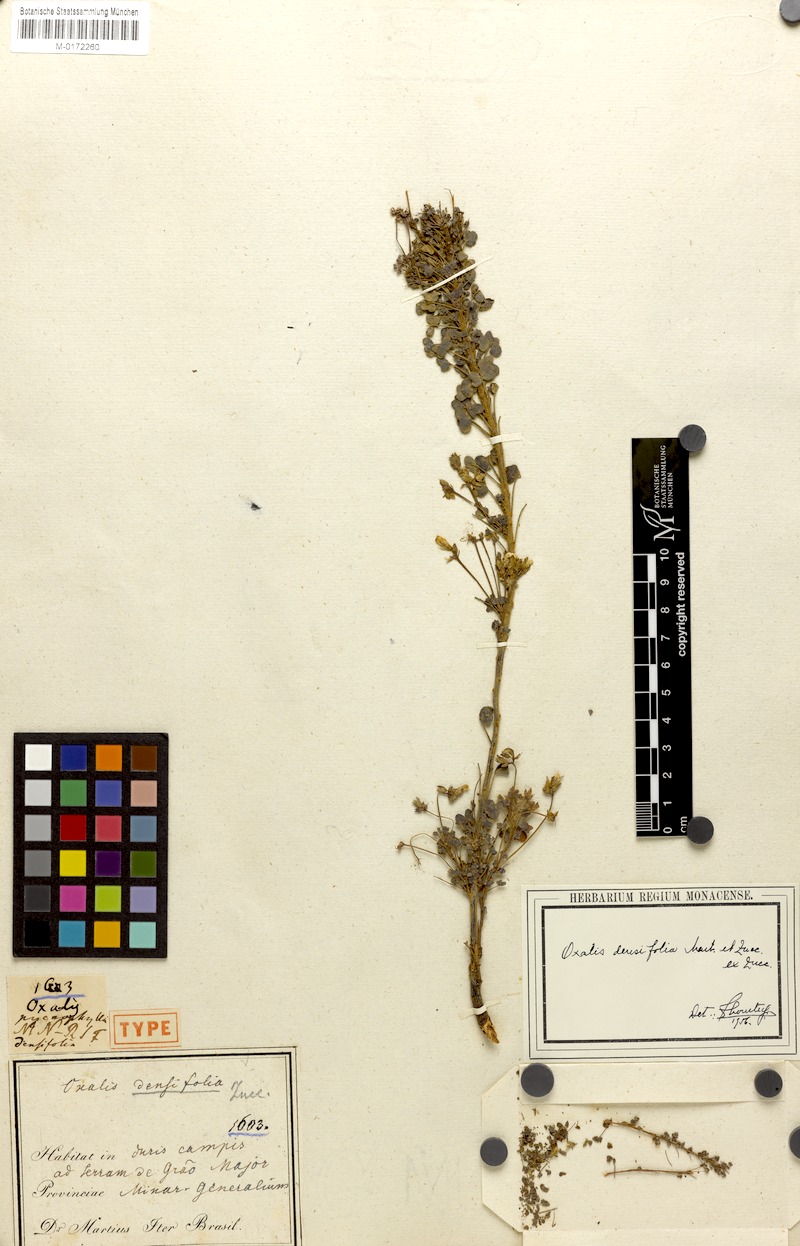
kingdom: Plantae
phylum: Tracheophyta
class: Magnoliopsida
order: Oxalidales
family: Oxalidaceae
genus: Oxalis
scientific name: Oxalis densifolia
